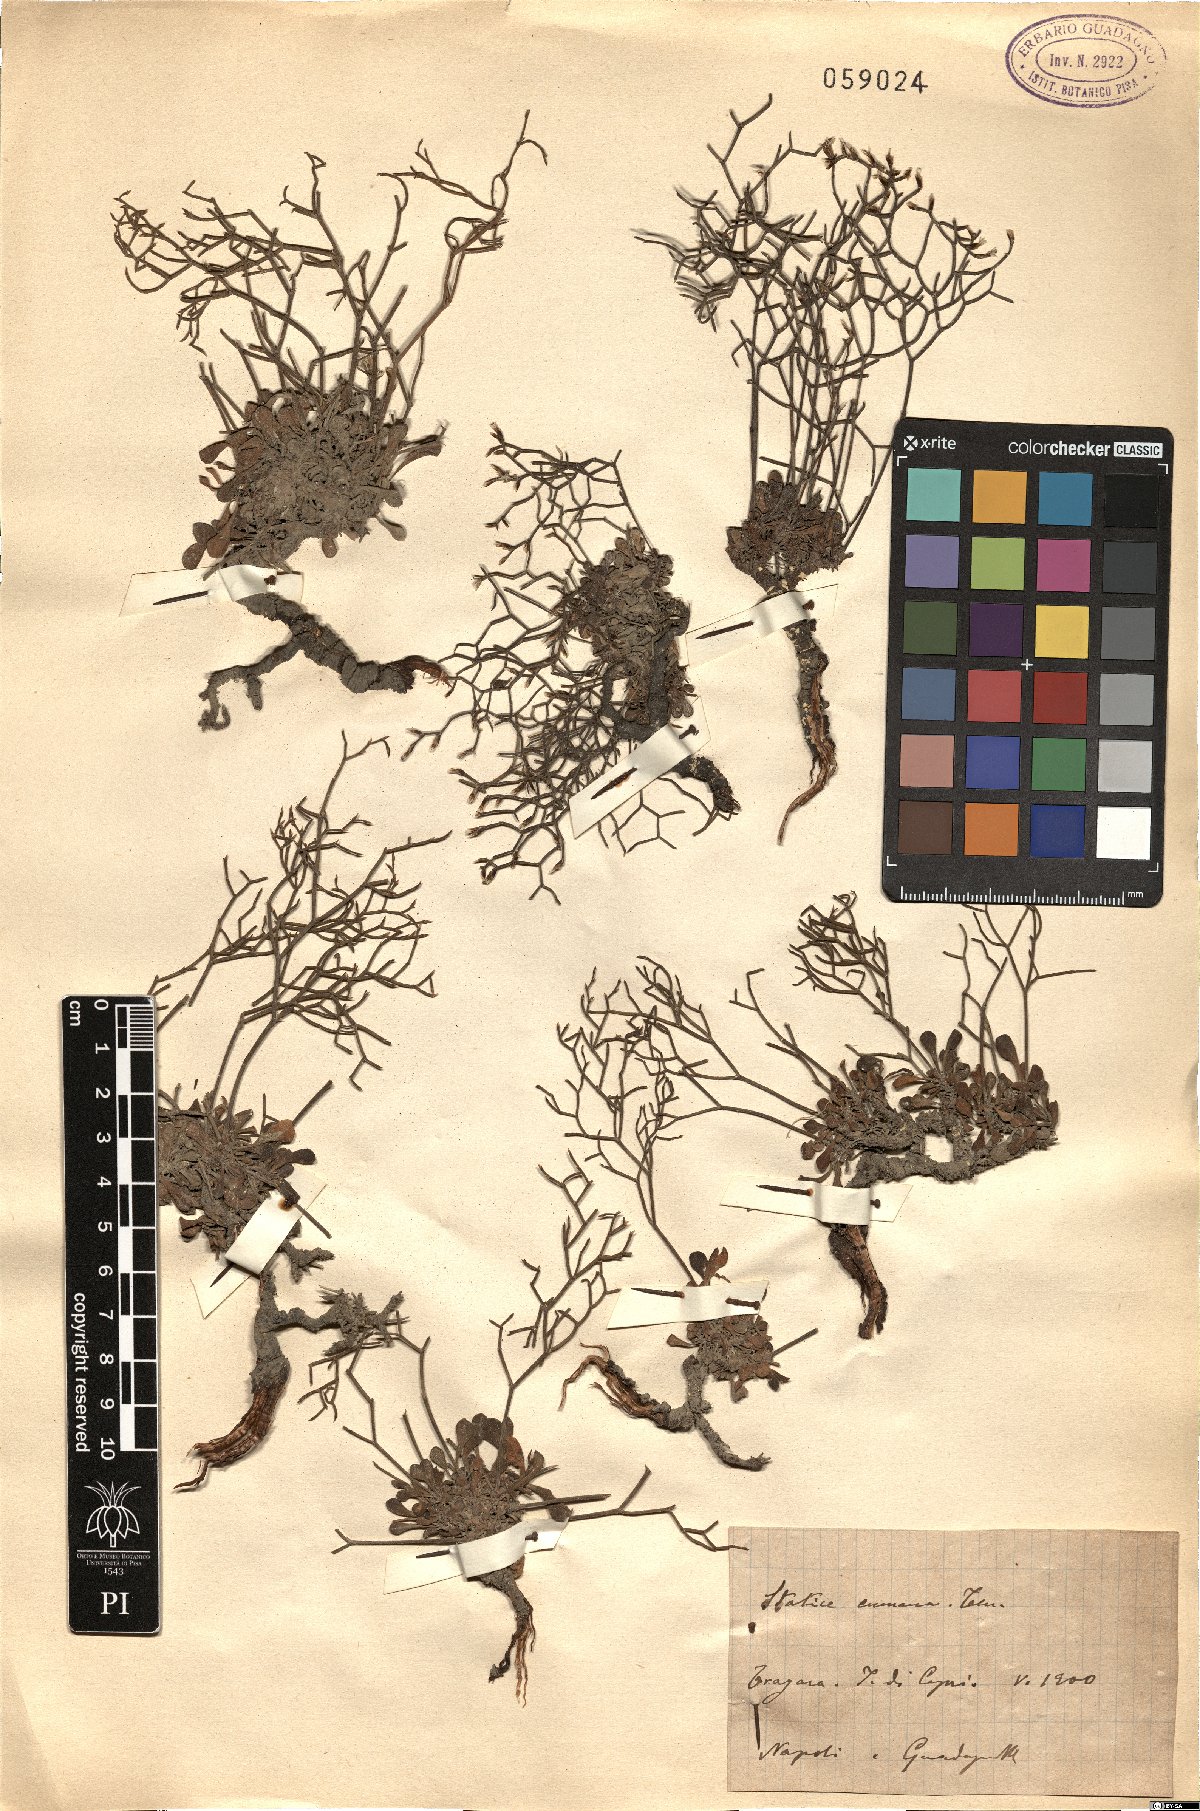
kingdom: Plantae
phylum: Tracheophyta
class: Magnoliopsida
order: Caryophyllales
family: Plumbaginaceae
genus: Limonium
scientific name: Limonium cumanum
